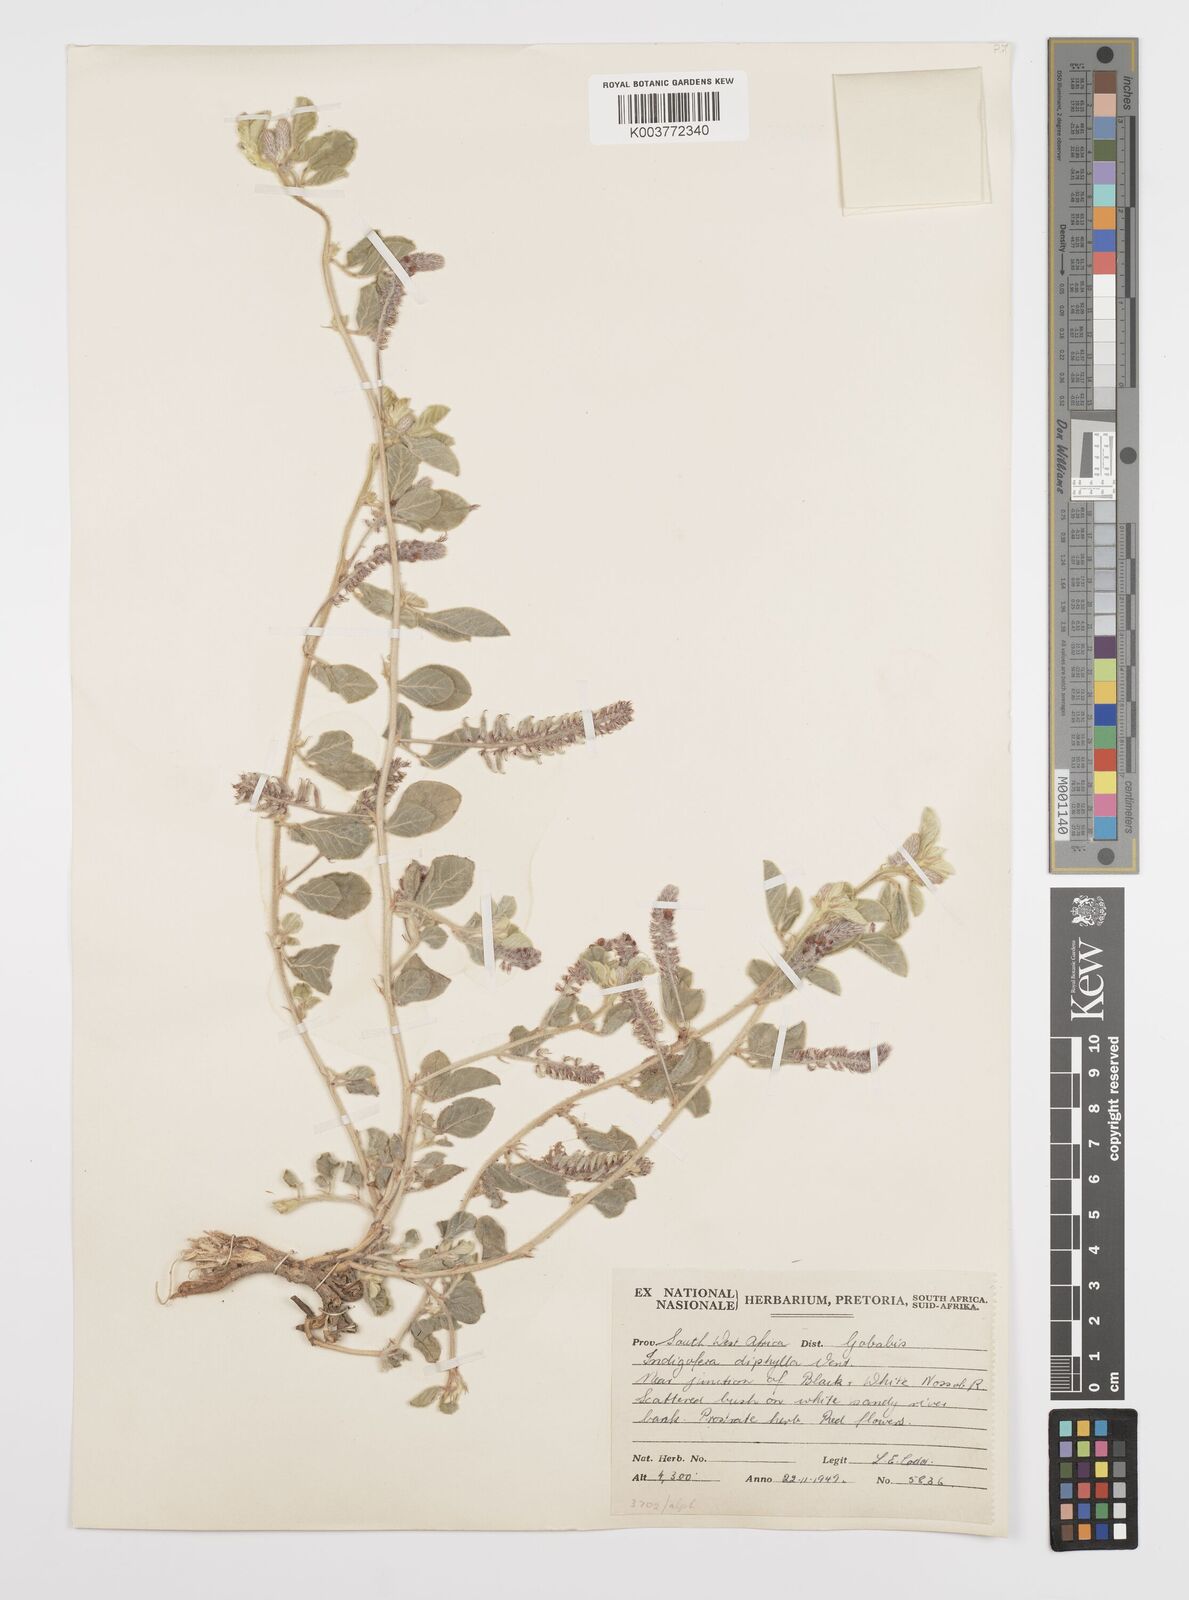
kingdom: Plantae
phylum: Tracheophyta
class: Magnoliopsida
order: Fabales
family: Fabaceae
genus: Indigofera
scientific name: Indigofera flavicans
